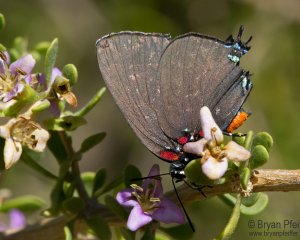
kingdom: Animalia
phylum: Arthropoda
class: Insecta
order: Lepidoptera
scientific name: Lepidoptera
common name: Butterflies
